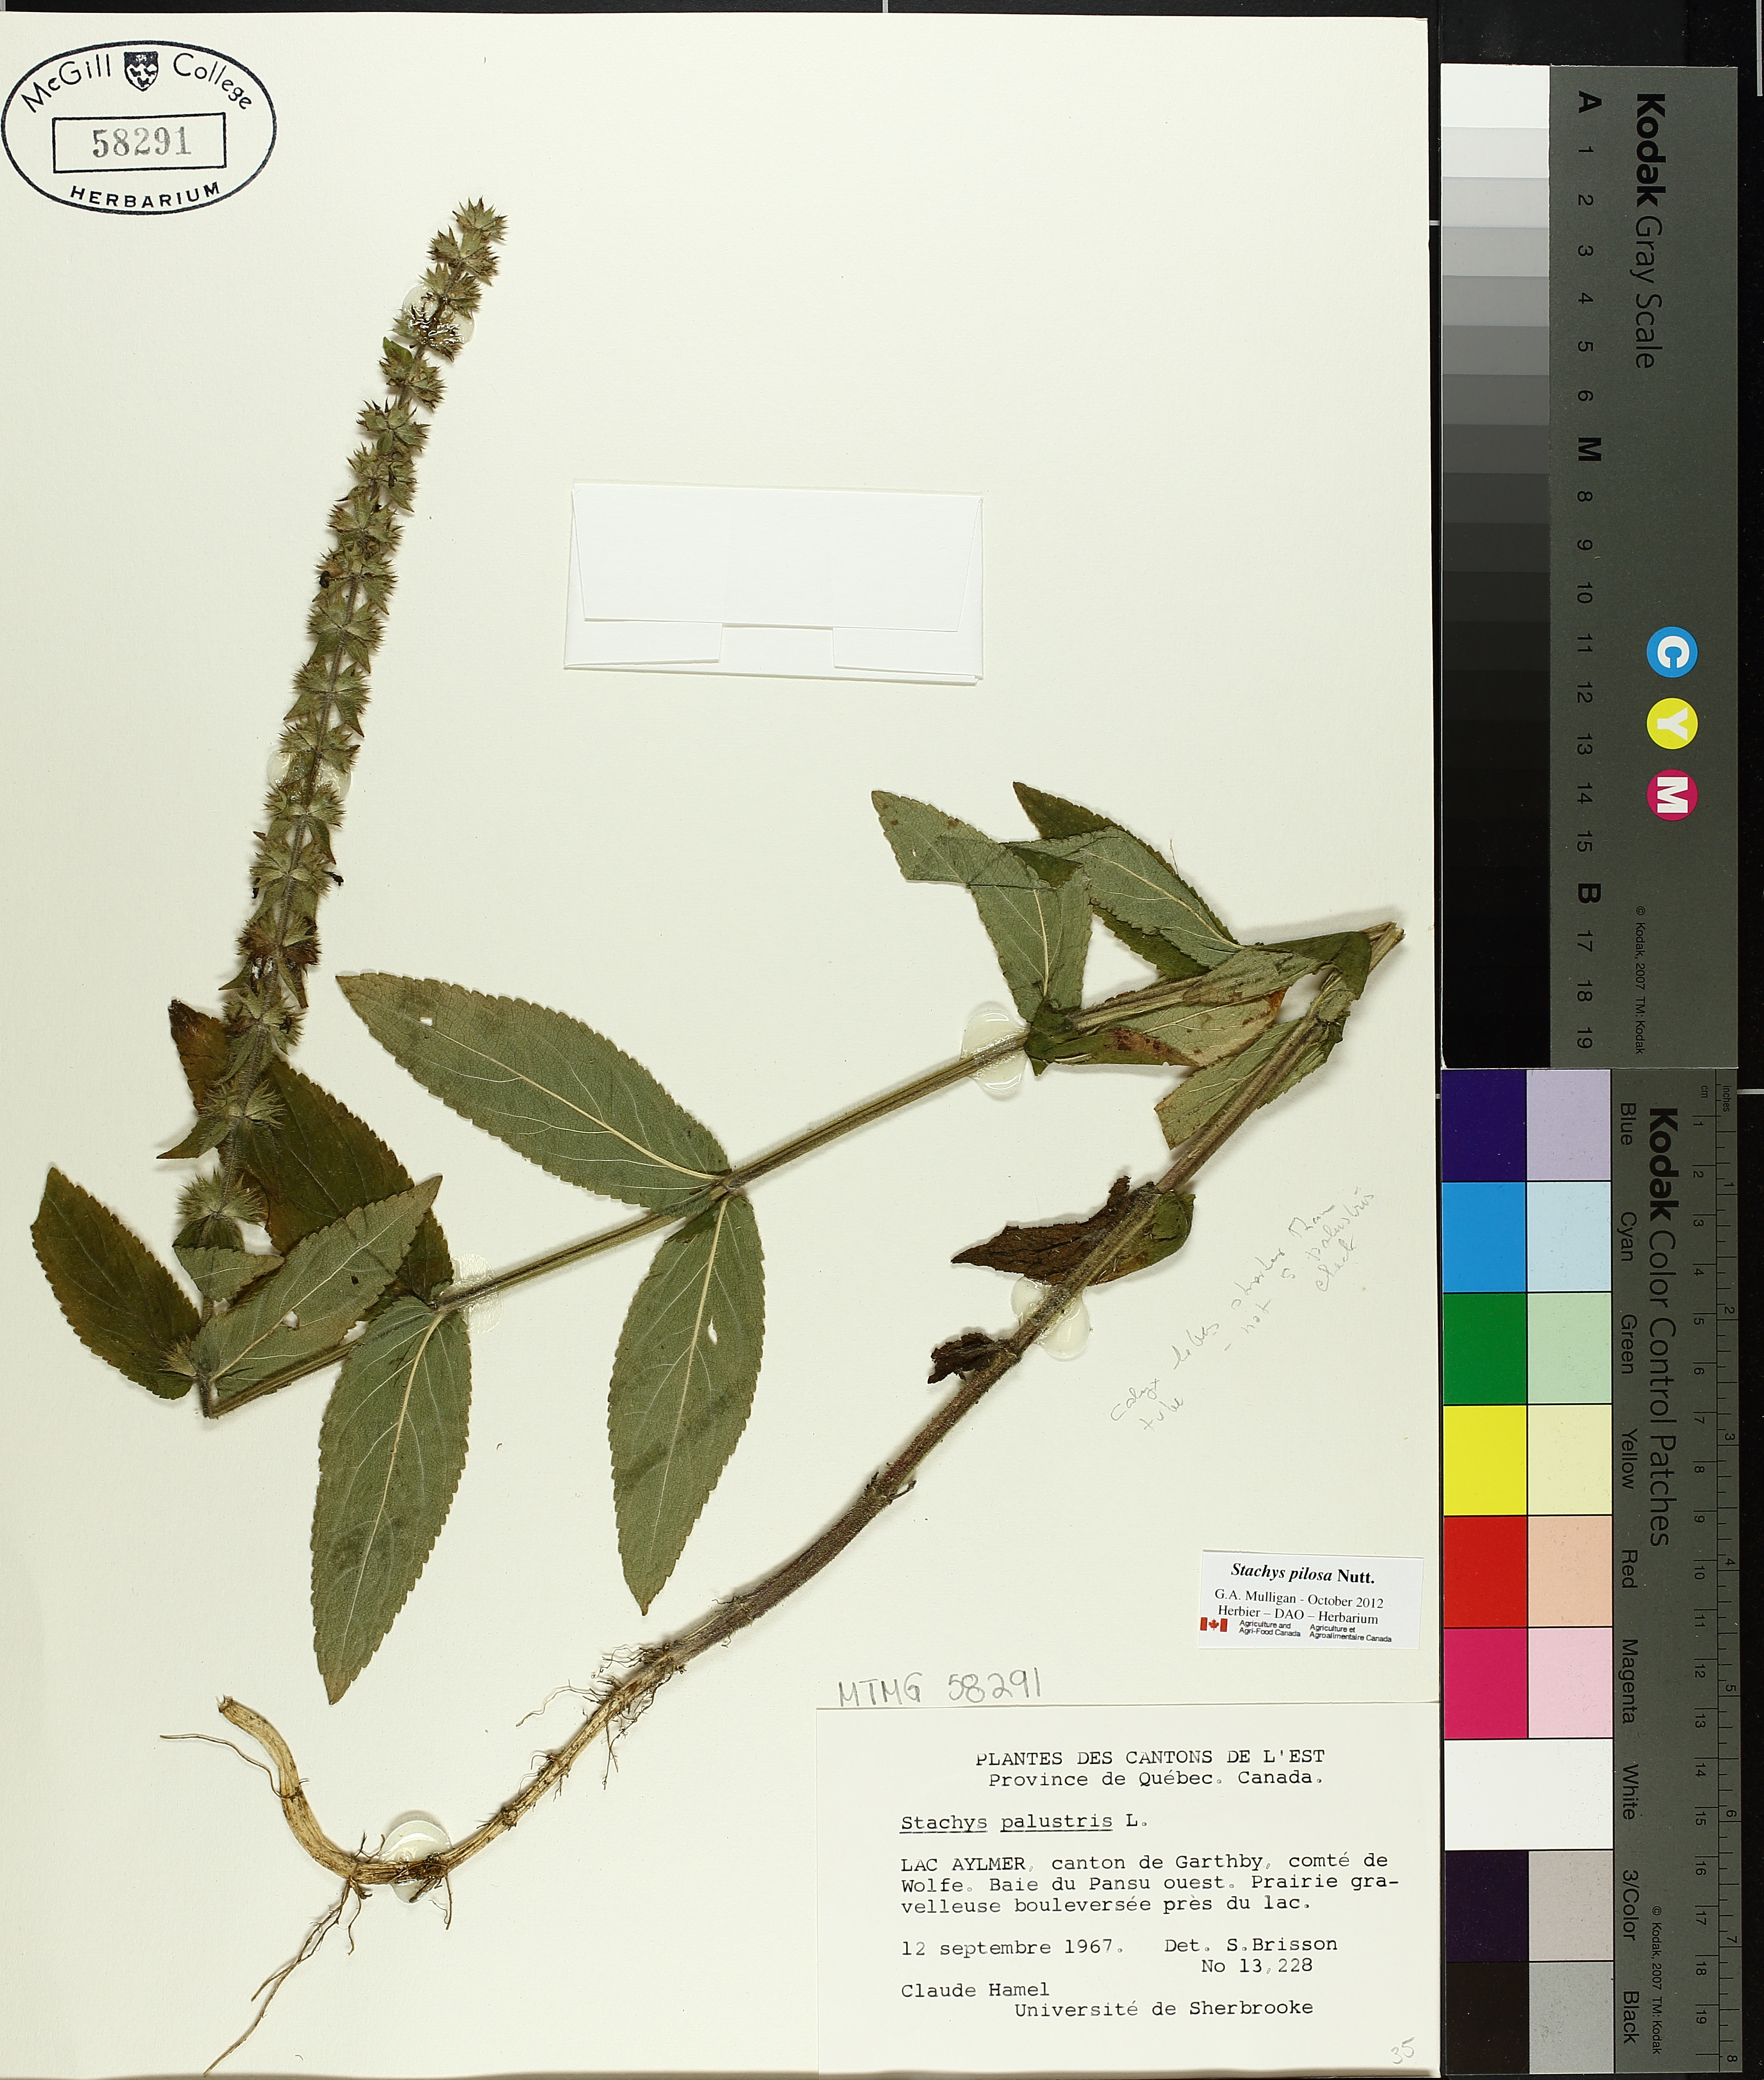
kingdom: Plantae
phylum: Tracheophyta
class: Magnoliopsida
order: Lamiales
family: Lamiaceae
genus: Stachys
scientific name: Stachys palustris
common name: Marsh woundwort
